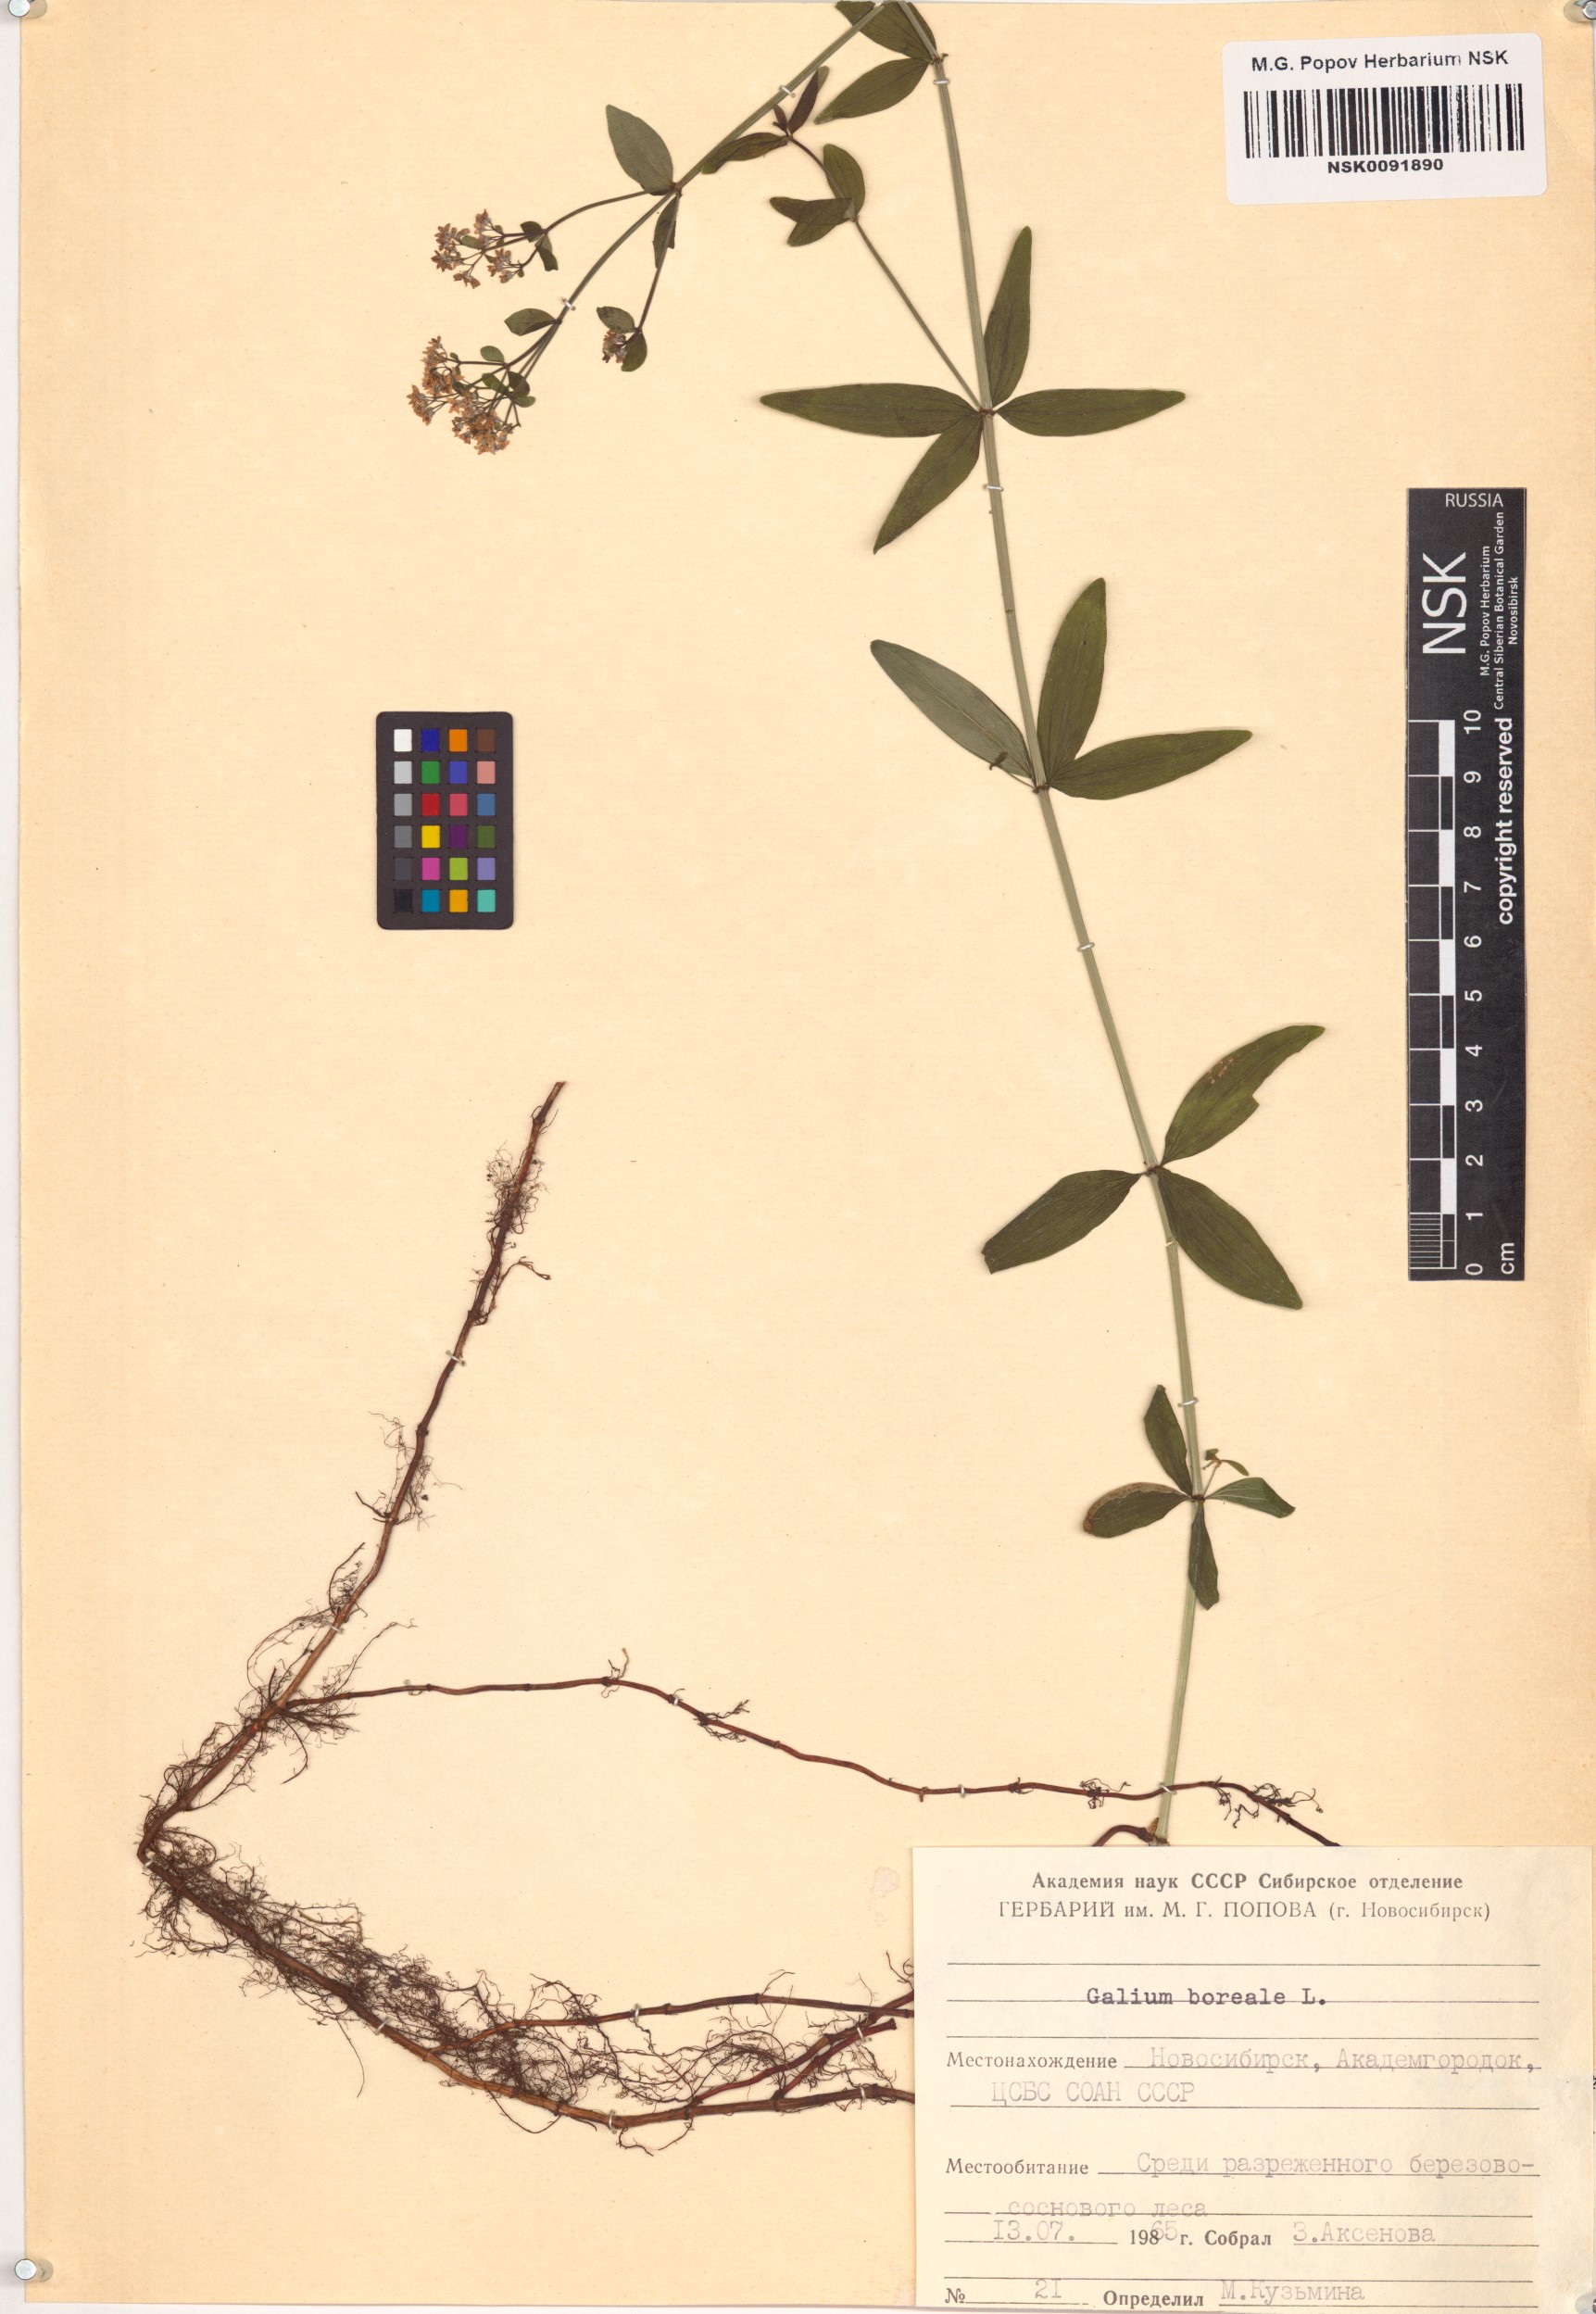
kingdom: Plantae
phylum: Tracheophyta
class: Magnoliopsida
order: Gentianales
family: Rubiaceae
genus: Galium
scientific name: Galium boreale
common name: Northern bedstraw
